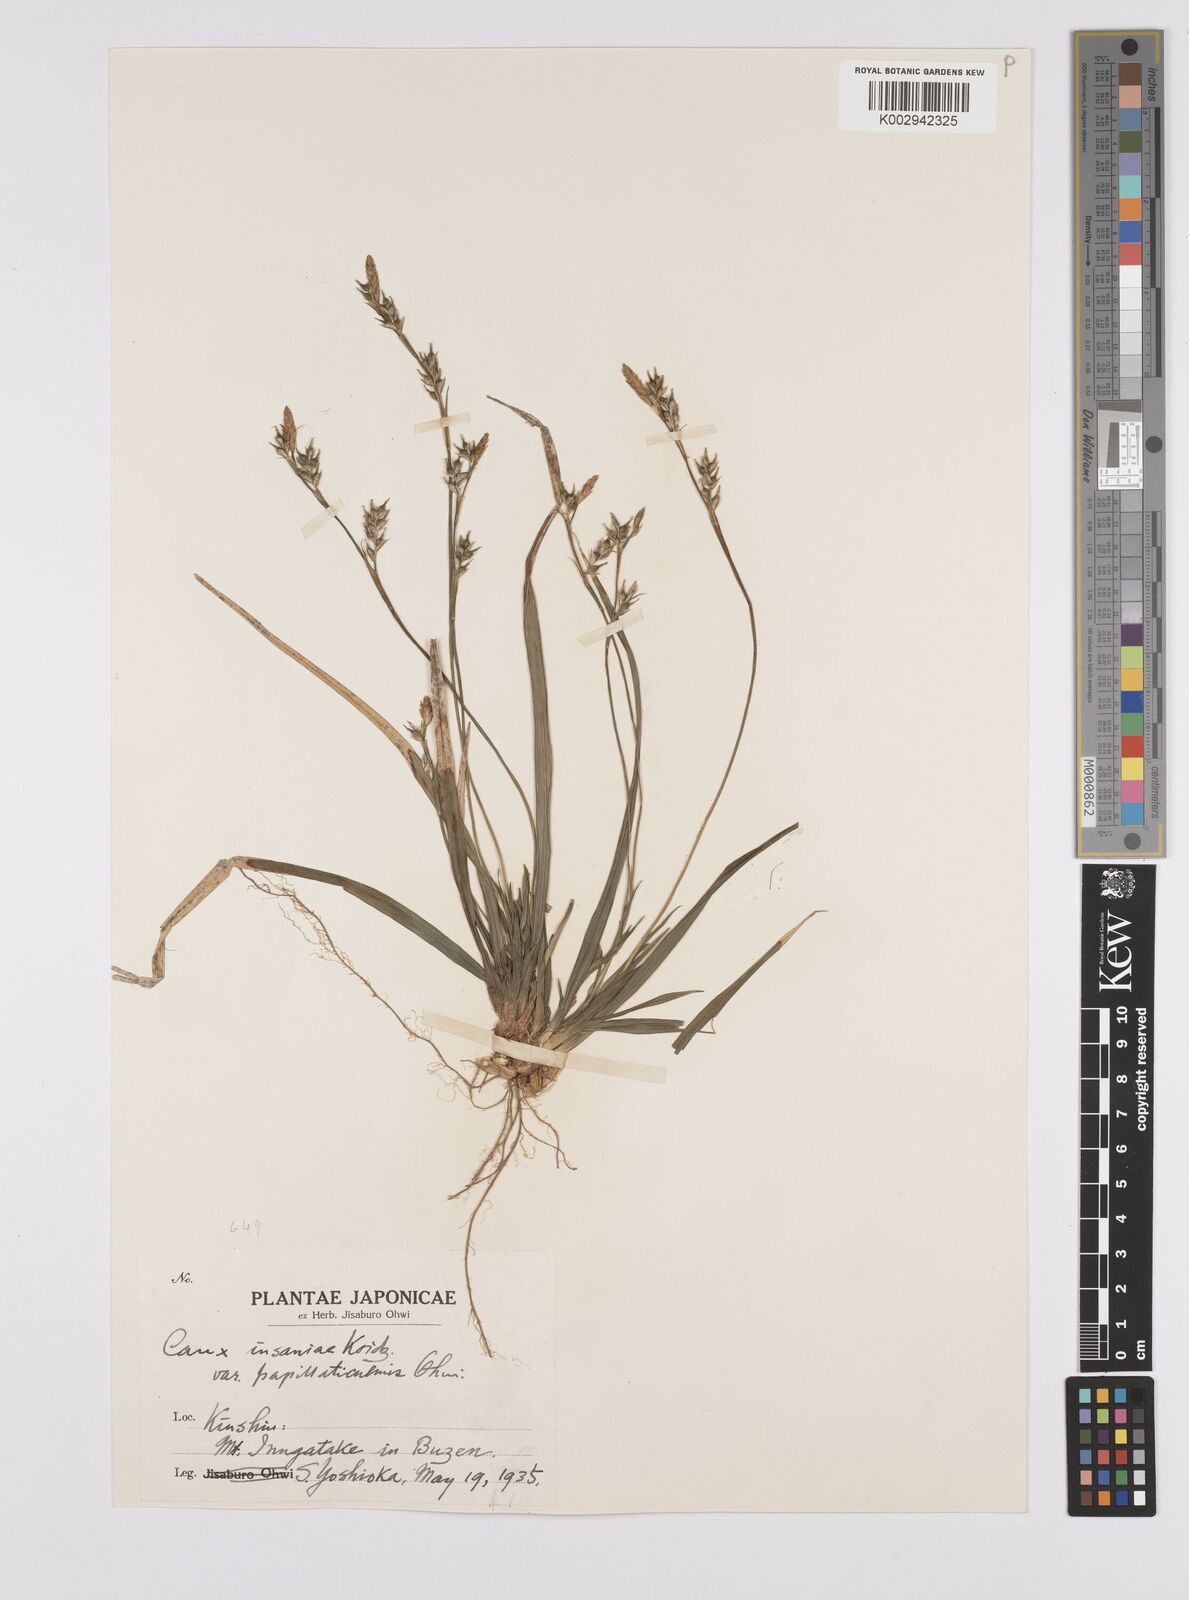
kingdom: Plantae
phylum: Tracheophyta
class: Liliopsida
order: Poales
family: Cyperaceae
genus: Carex
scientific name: Carex insaniae
